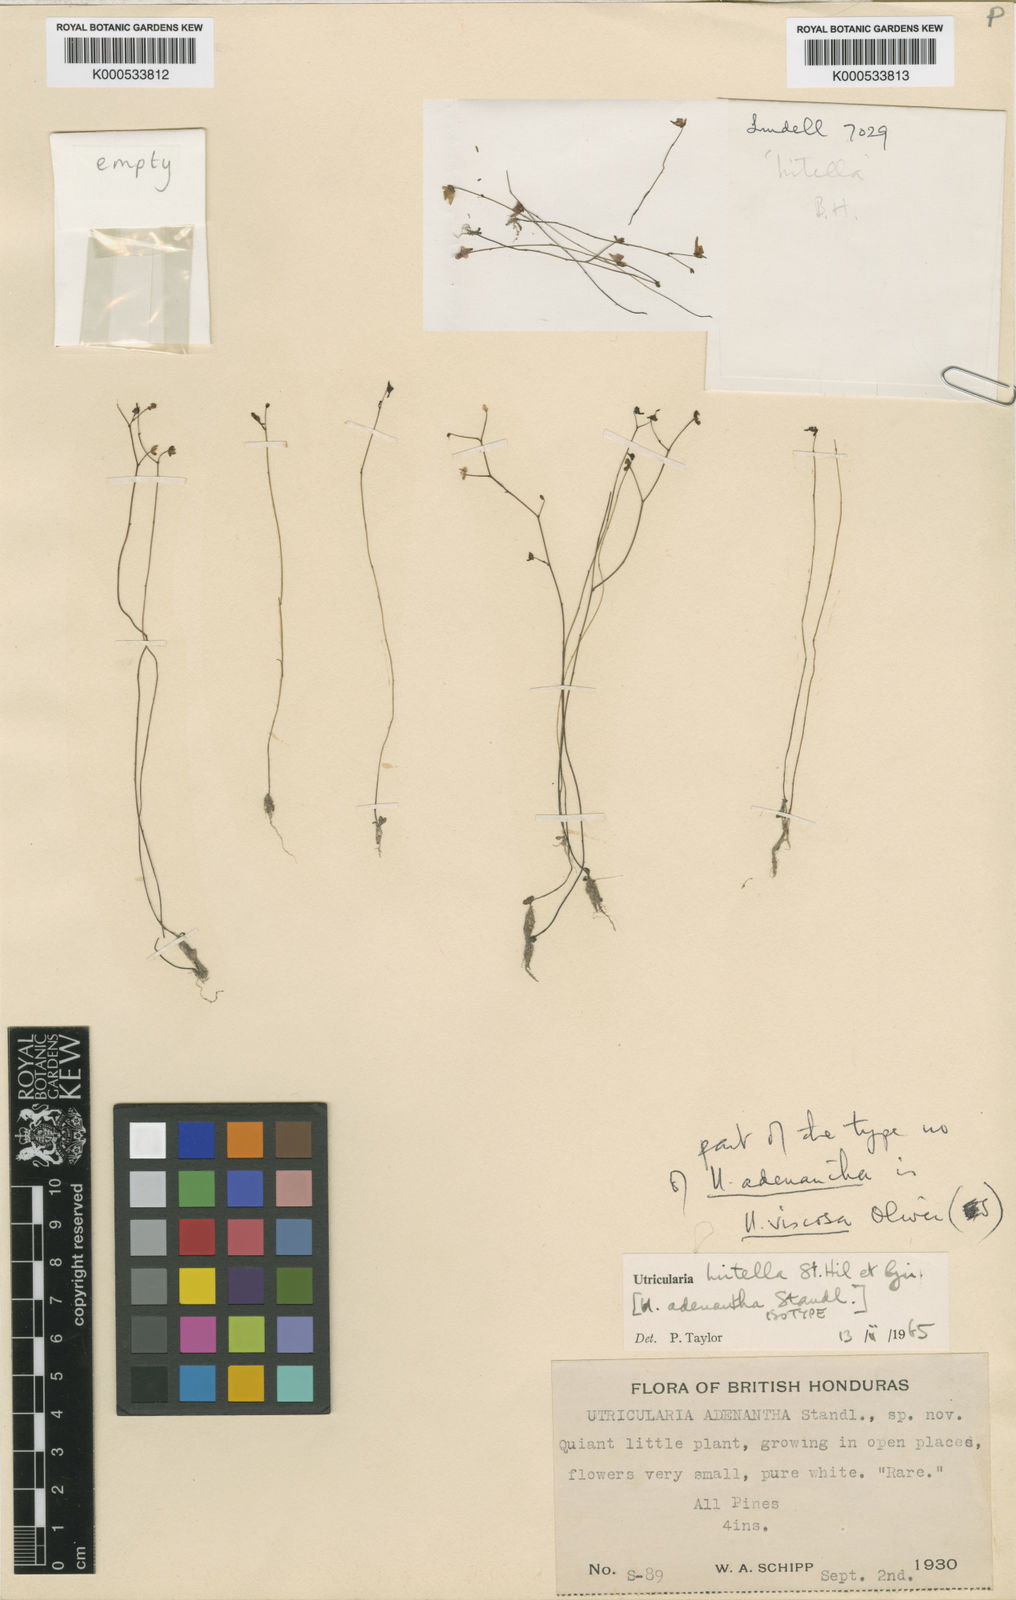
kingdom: Plantae
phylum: Tracheophyta
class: Magnoliopsida
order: Lamiales
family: Lentibulariaceae
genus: Utricularia
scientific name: Utricularia amethystina
